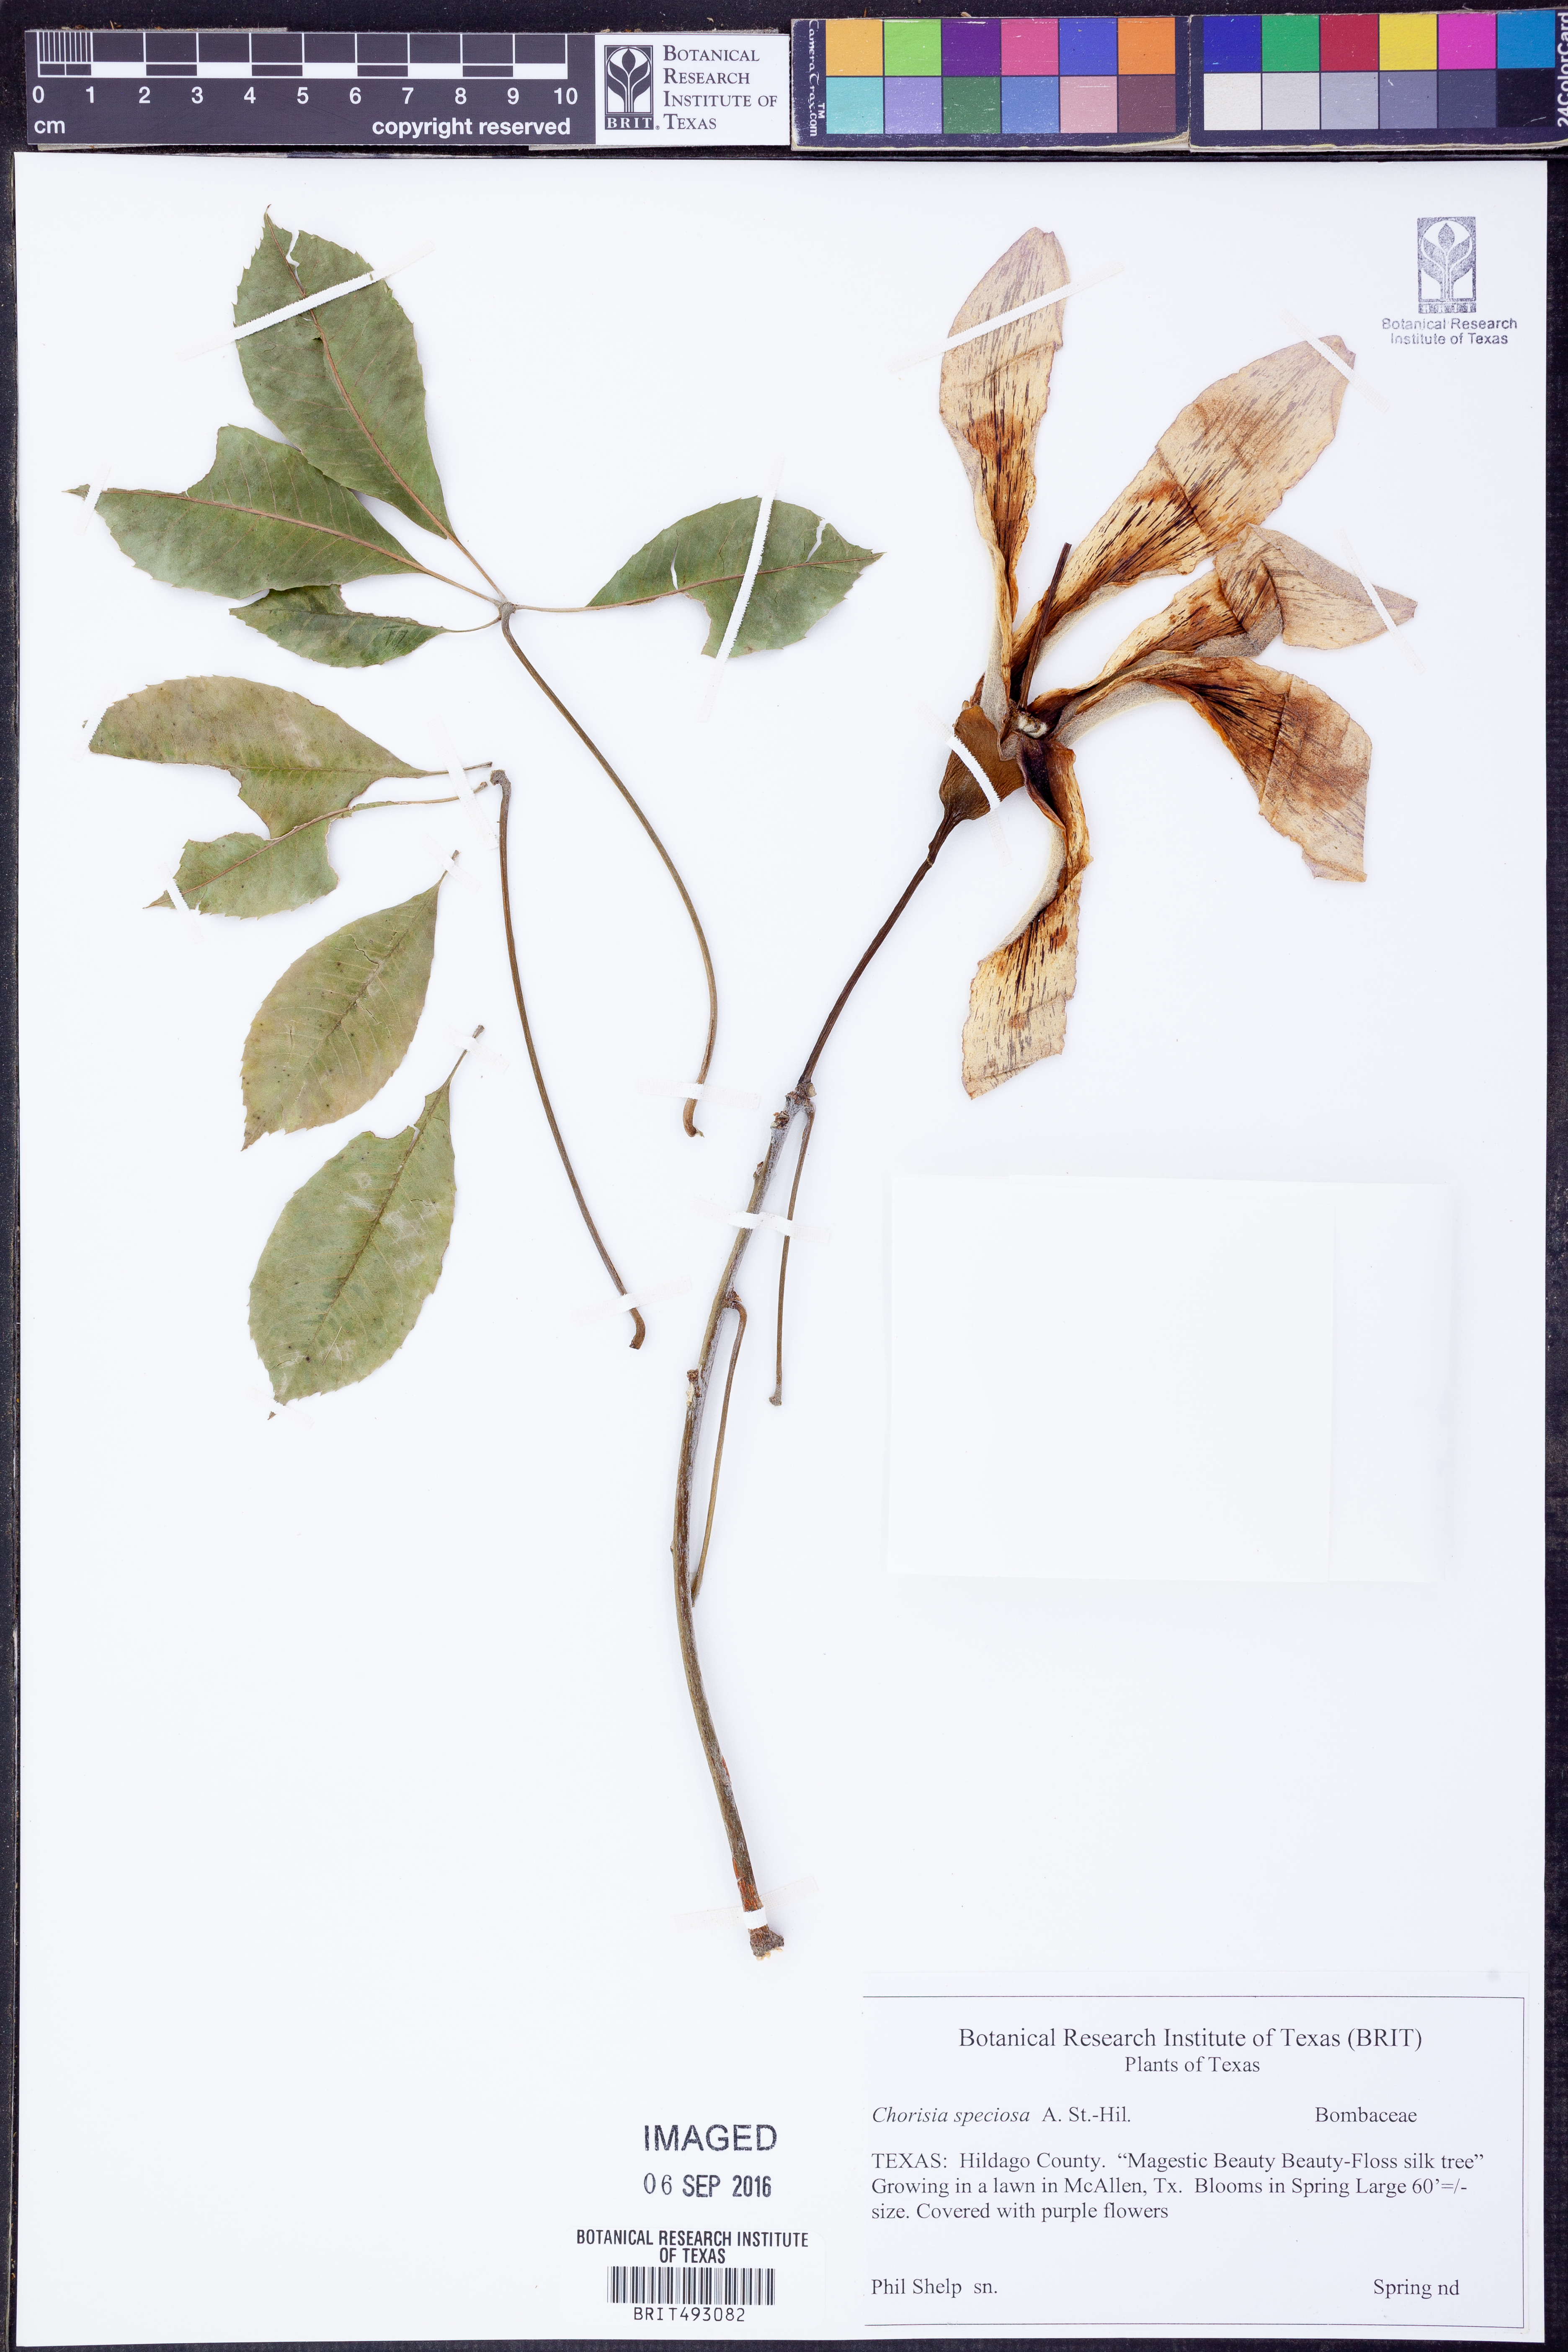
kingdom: Plantae
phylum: Tracheophyta
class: Magnoliopsida
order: Malvales
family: Malvaceae
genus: Ceiba
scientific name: Ceiba speciosa
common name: Silk-floss tree
